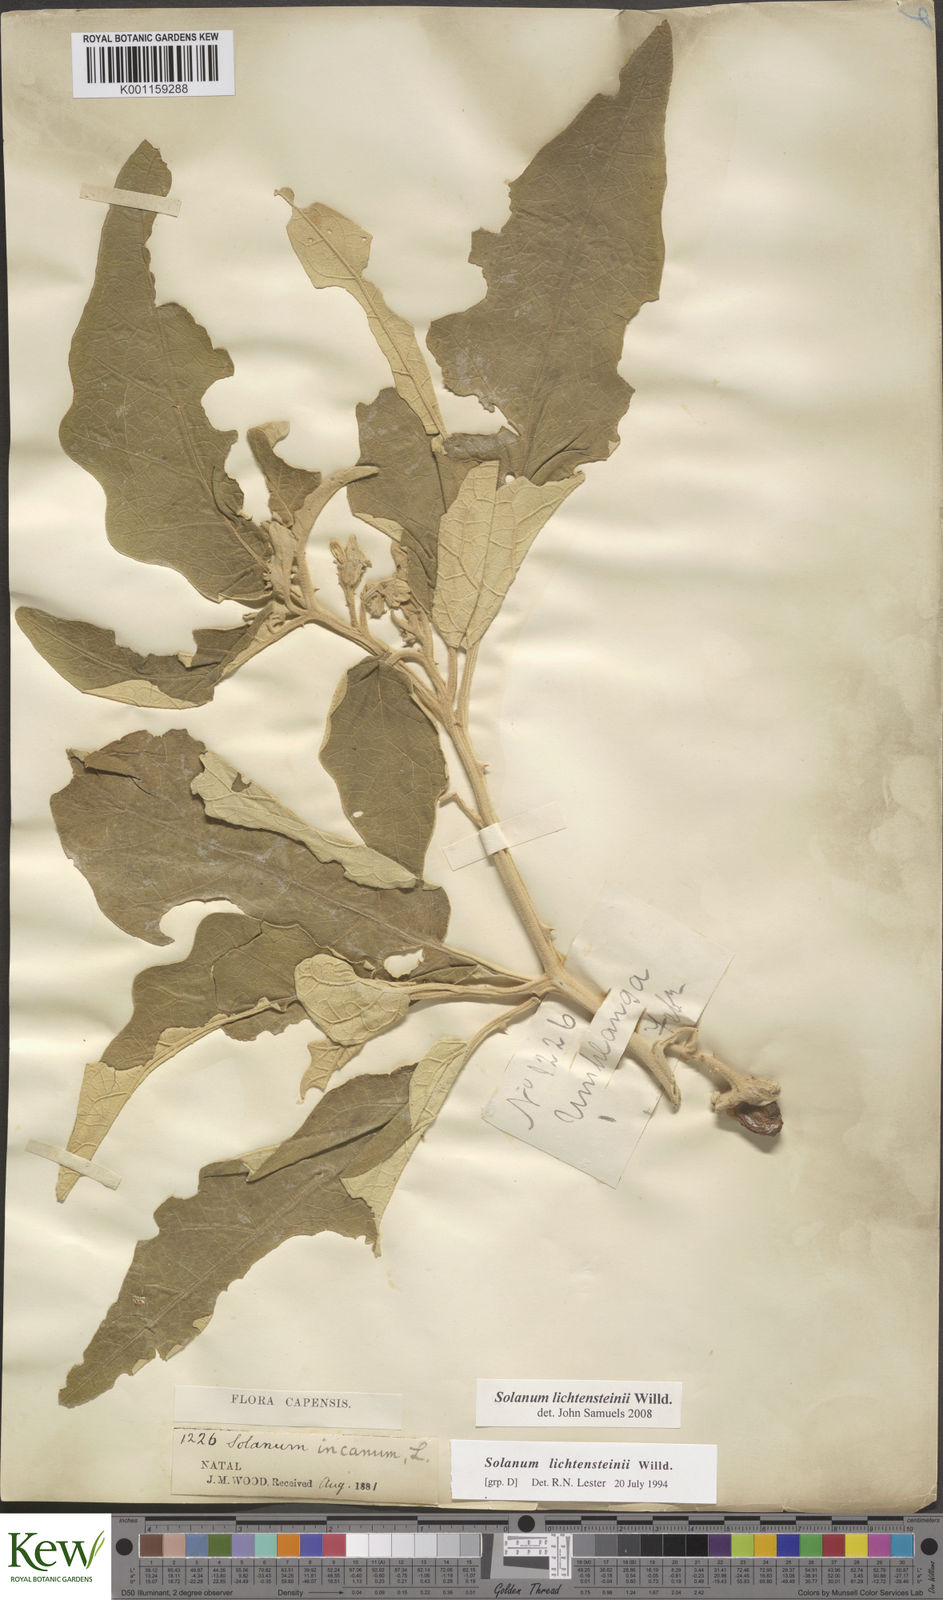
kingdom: Plantae
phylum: Tracheophyta
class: Magnoliopsida
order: Solanales
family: Solanaceae
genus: Solanum
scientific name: Solanum lichtensteinii
